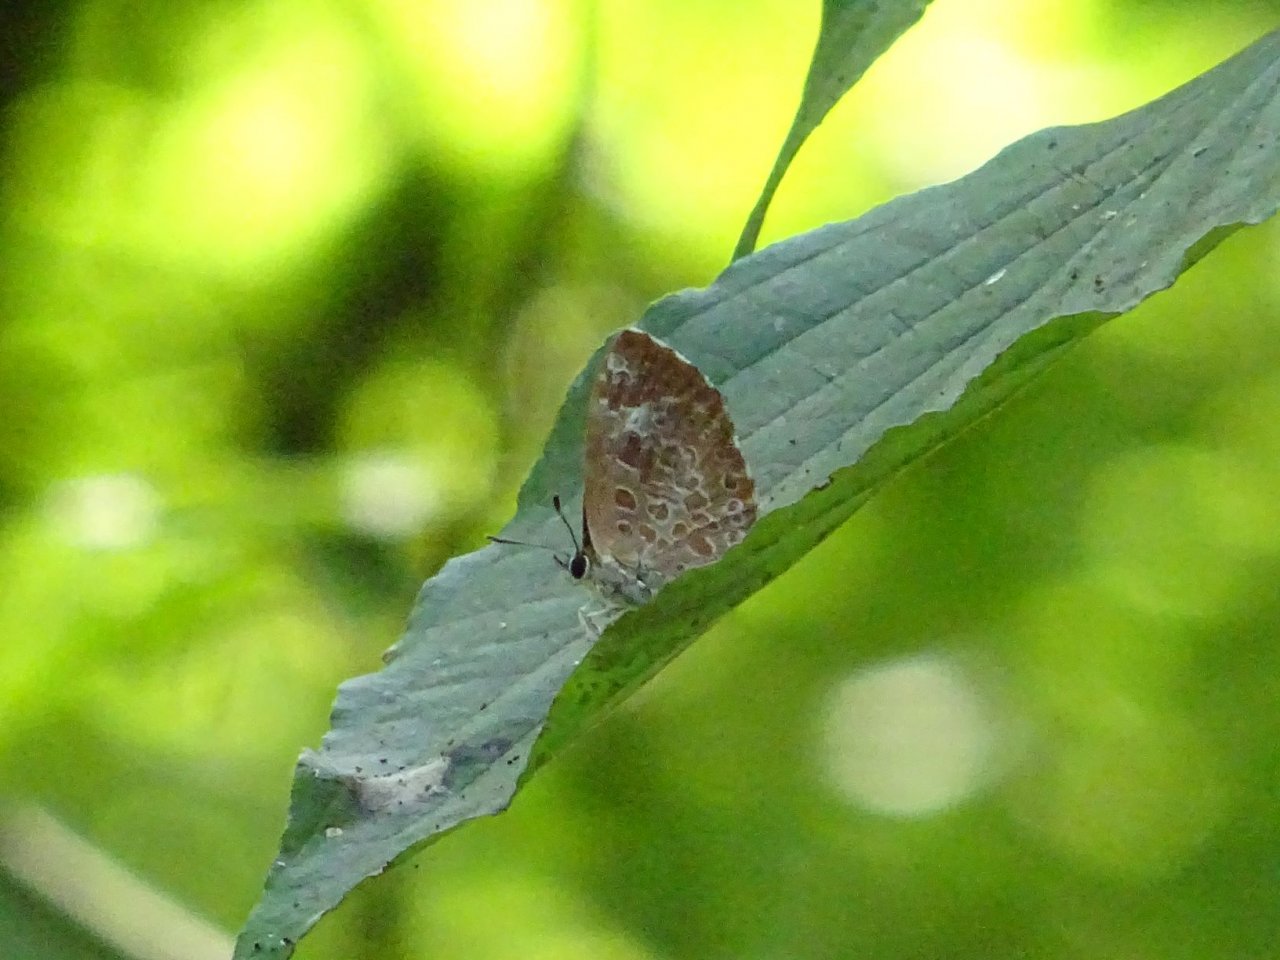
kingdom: Animalia
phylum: Arthropoda
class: Insecta
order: Lepidoptera
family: Lycaenidae
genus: Feniseca
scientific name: Feniseca tarquinius
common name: Harvester
